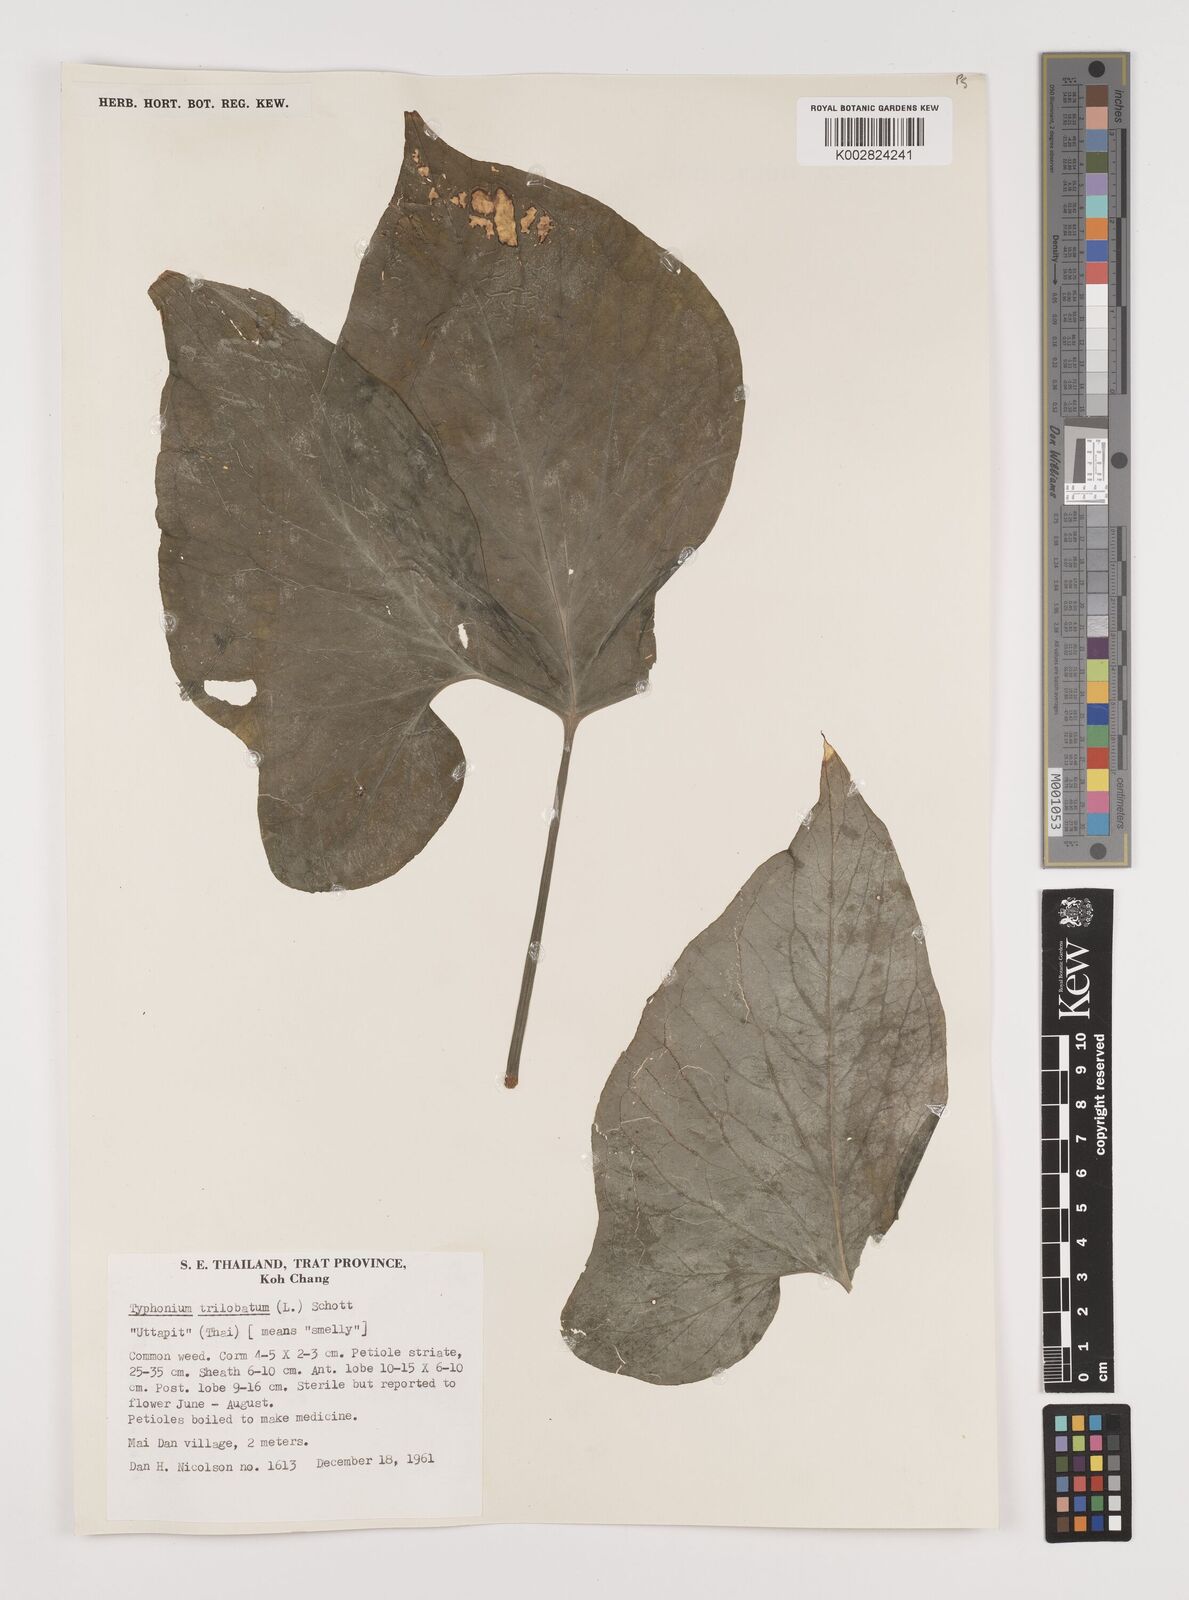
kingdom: Plantae
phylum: Tracheophyta
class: Liliopsida
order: Alismatales
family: Araceae
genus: Typhonium
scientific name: Typhonium trilobatum
